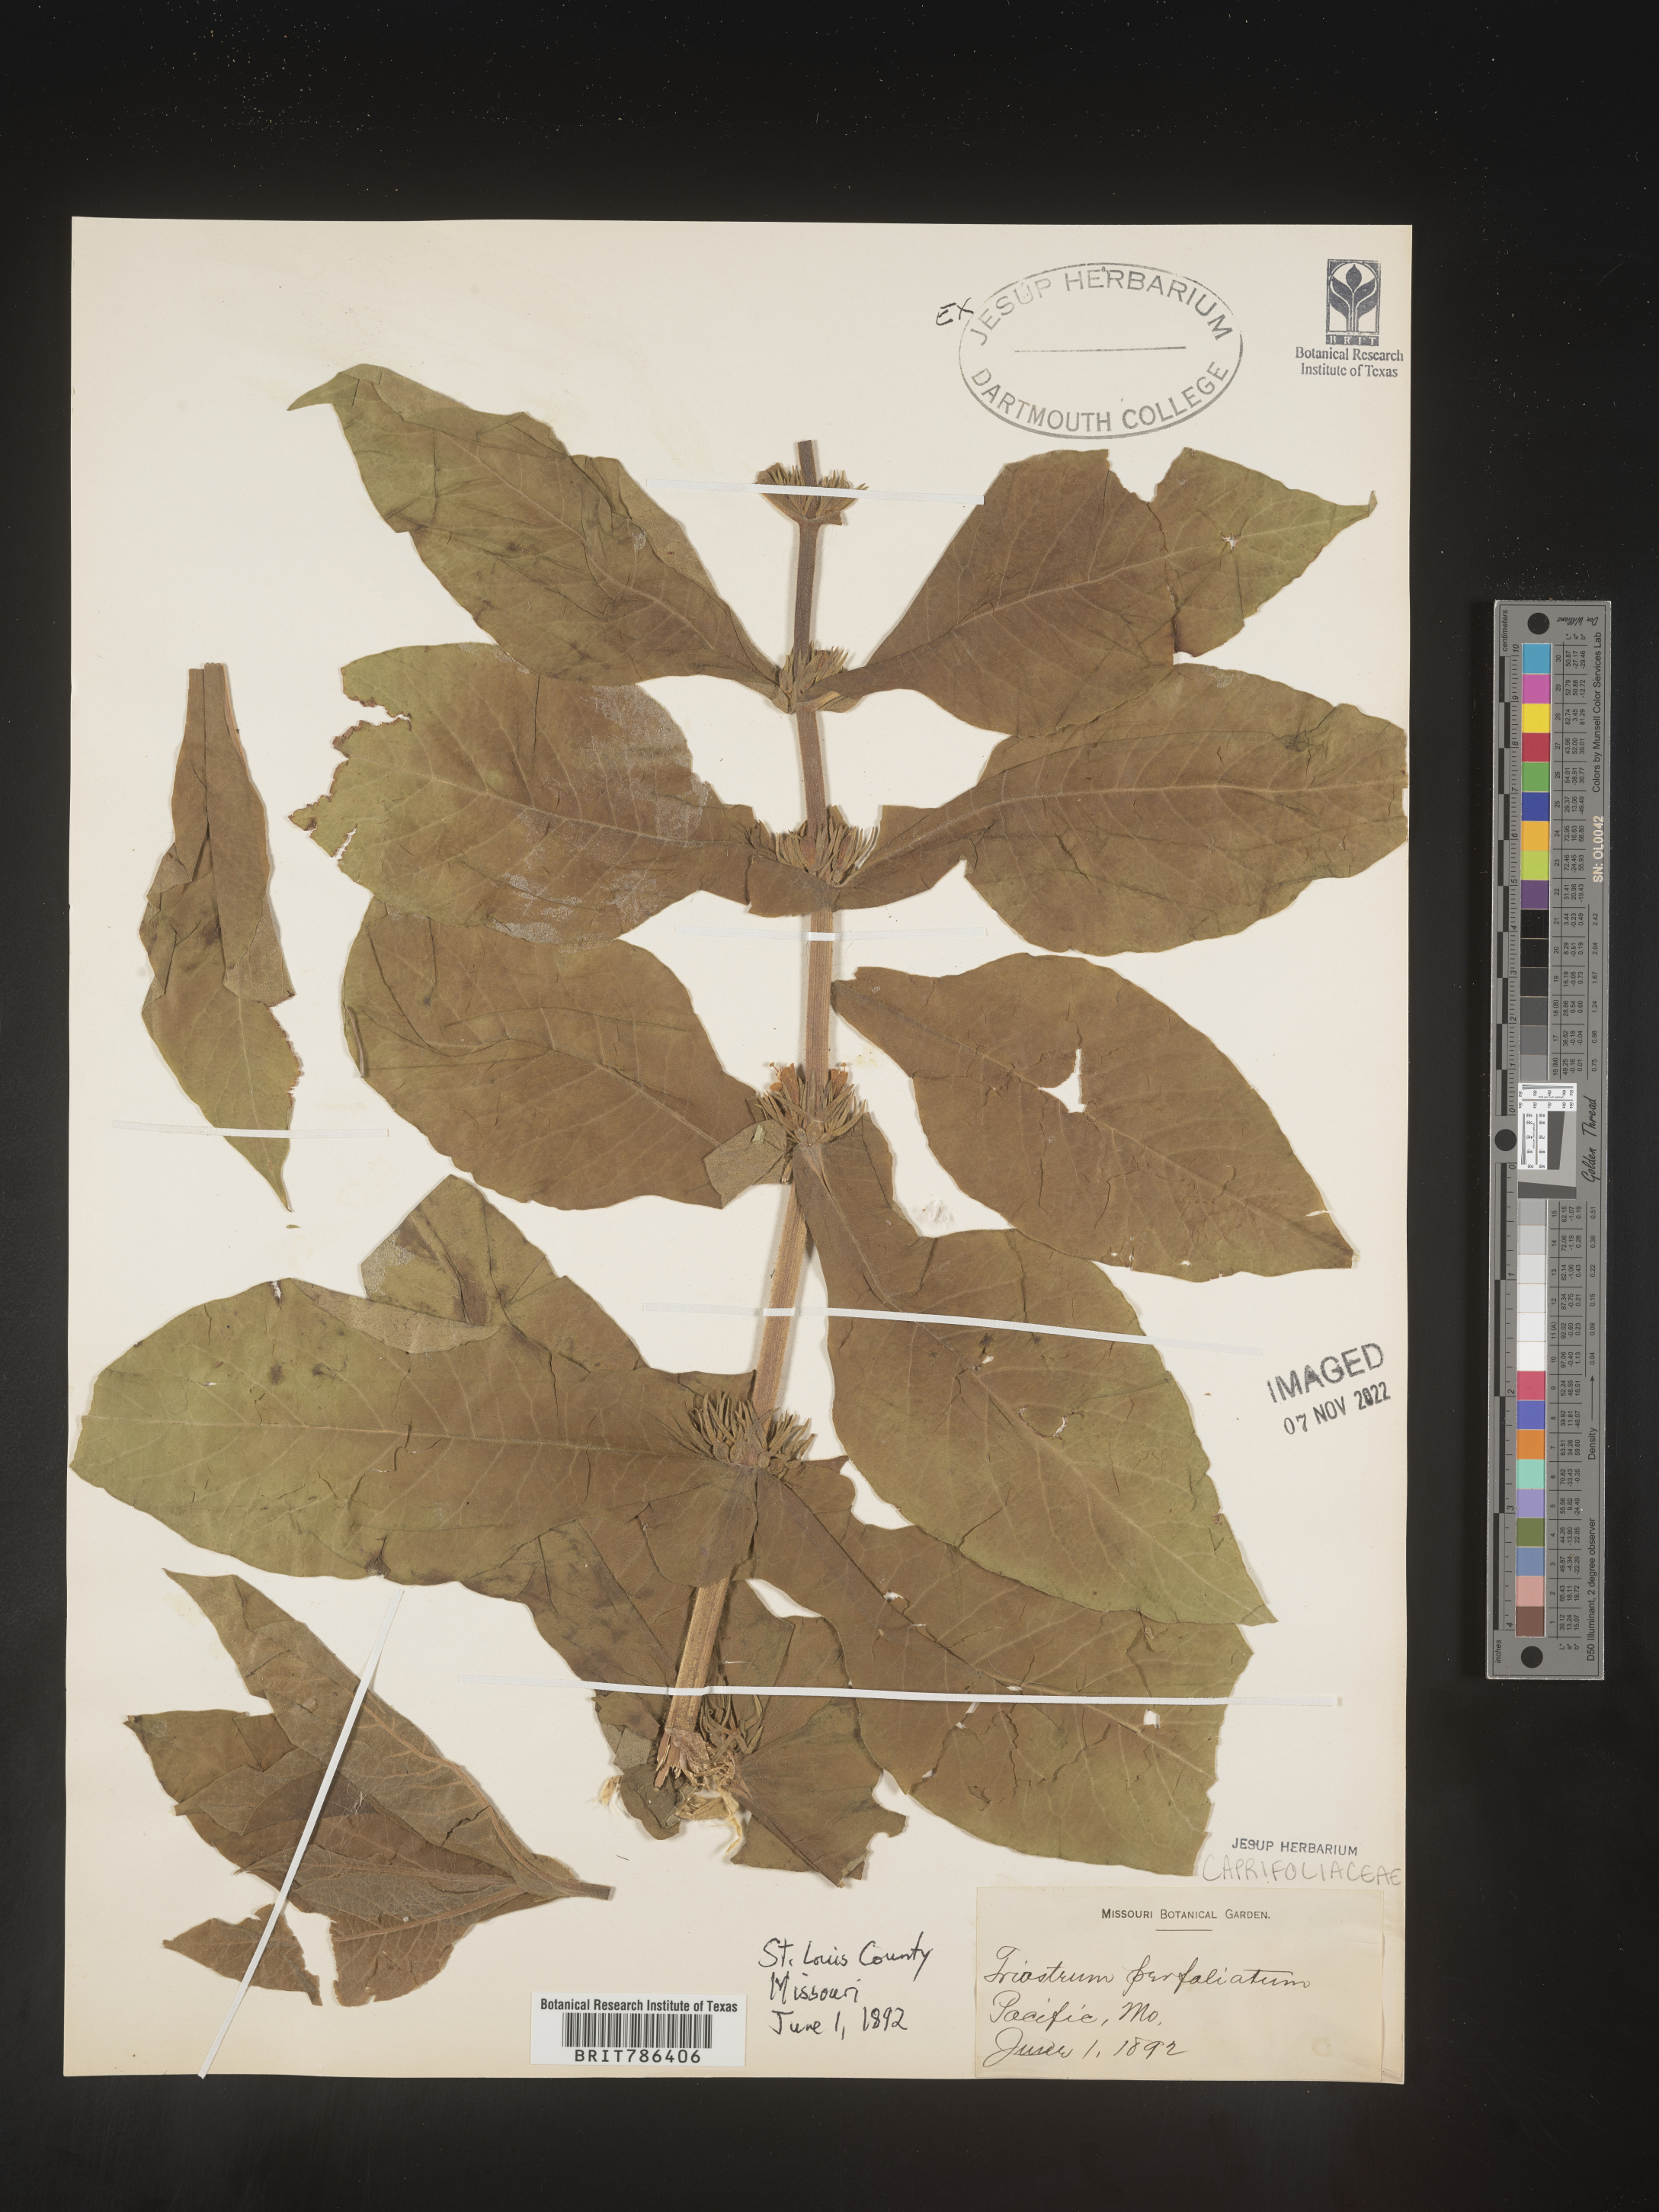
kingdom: Plantae
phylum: Tracheophyta
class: Magnoliopsida
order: Dipsacales
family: Caprifoliaceae
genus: Triosteum
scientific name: Triosteum perfoliatum
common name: Common horse-gentian
